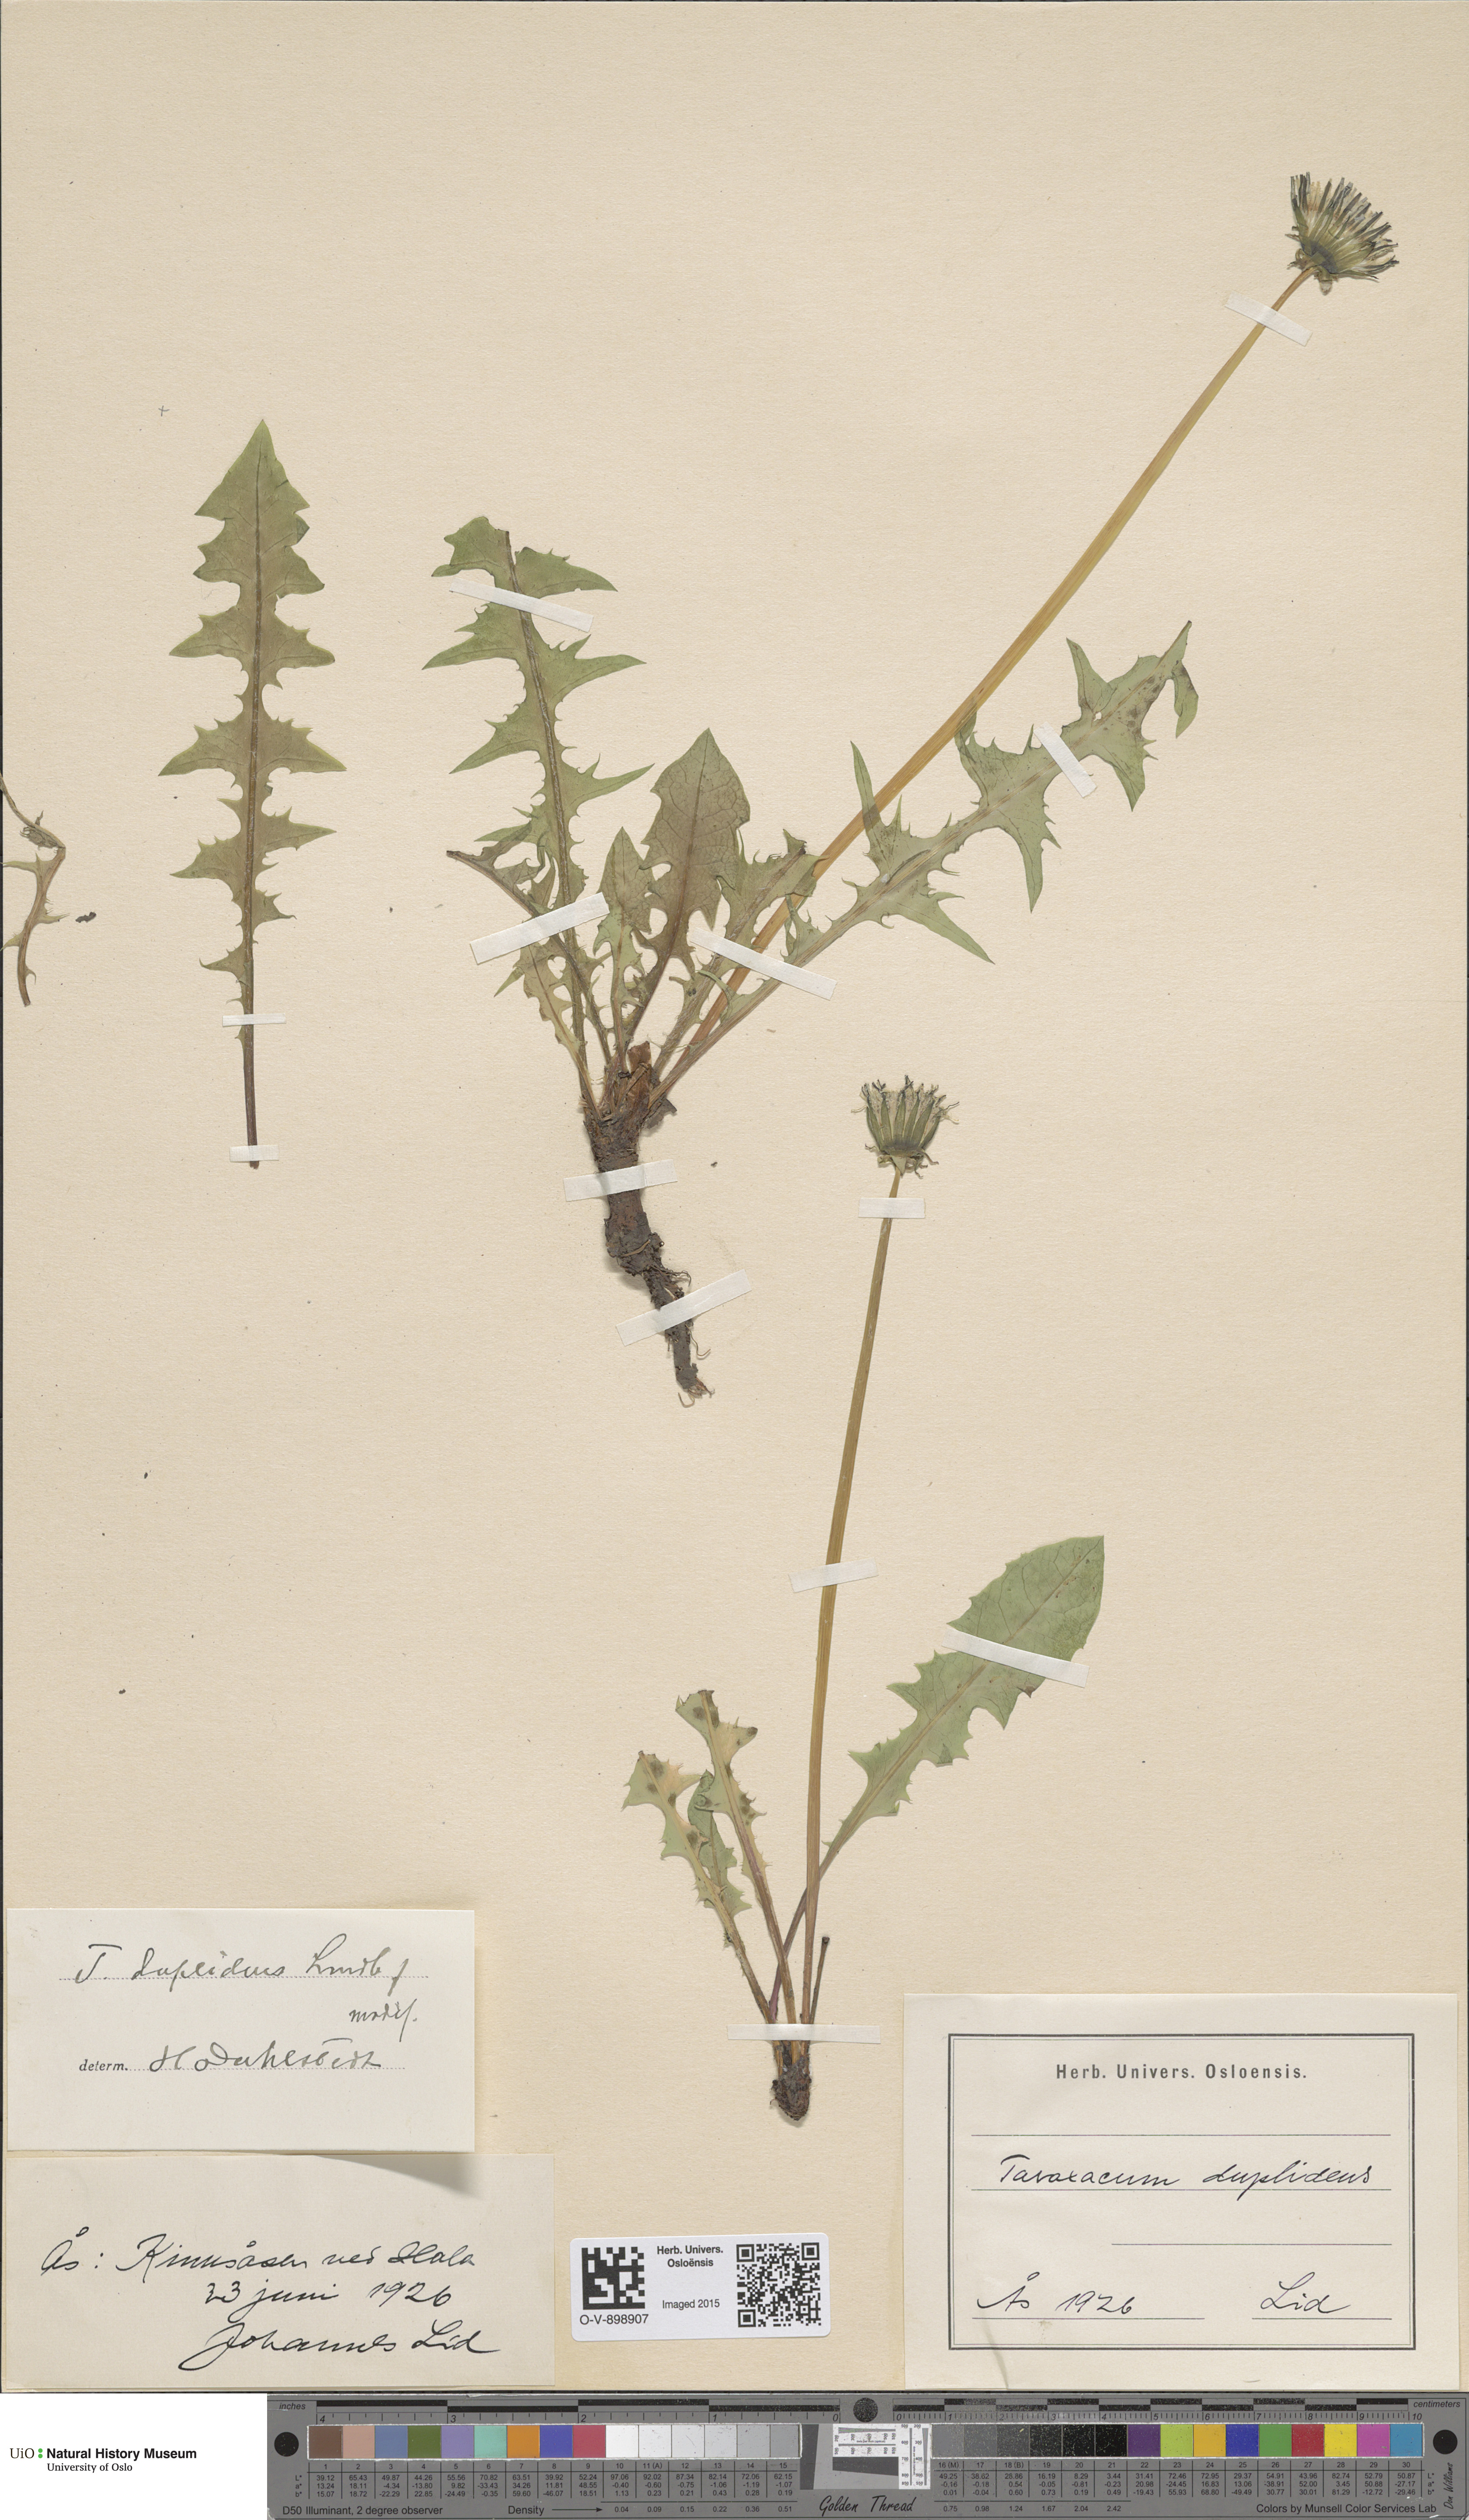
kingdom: Plantae
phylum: Tracheophyta
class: Magnoliopsida
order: Asterales
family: Asteraceae
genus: Taraxacum
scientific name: Taraxacum ostenfeldii
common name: Ostenfeld's dandelion
